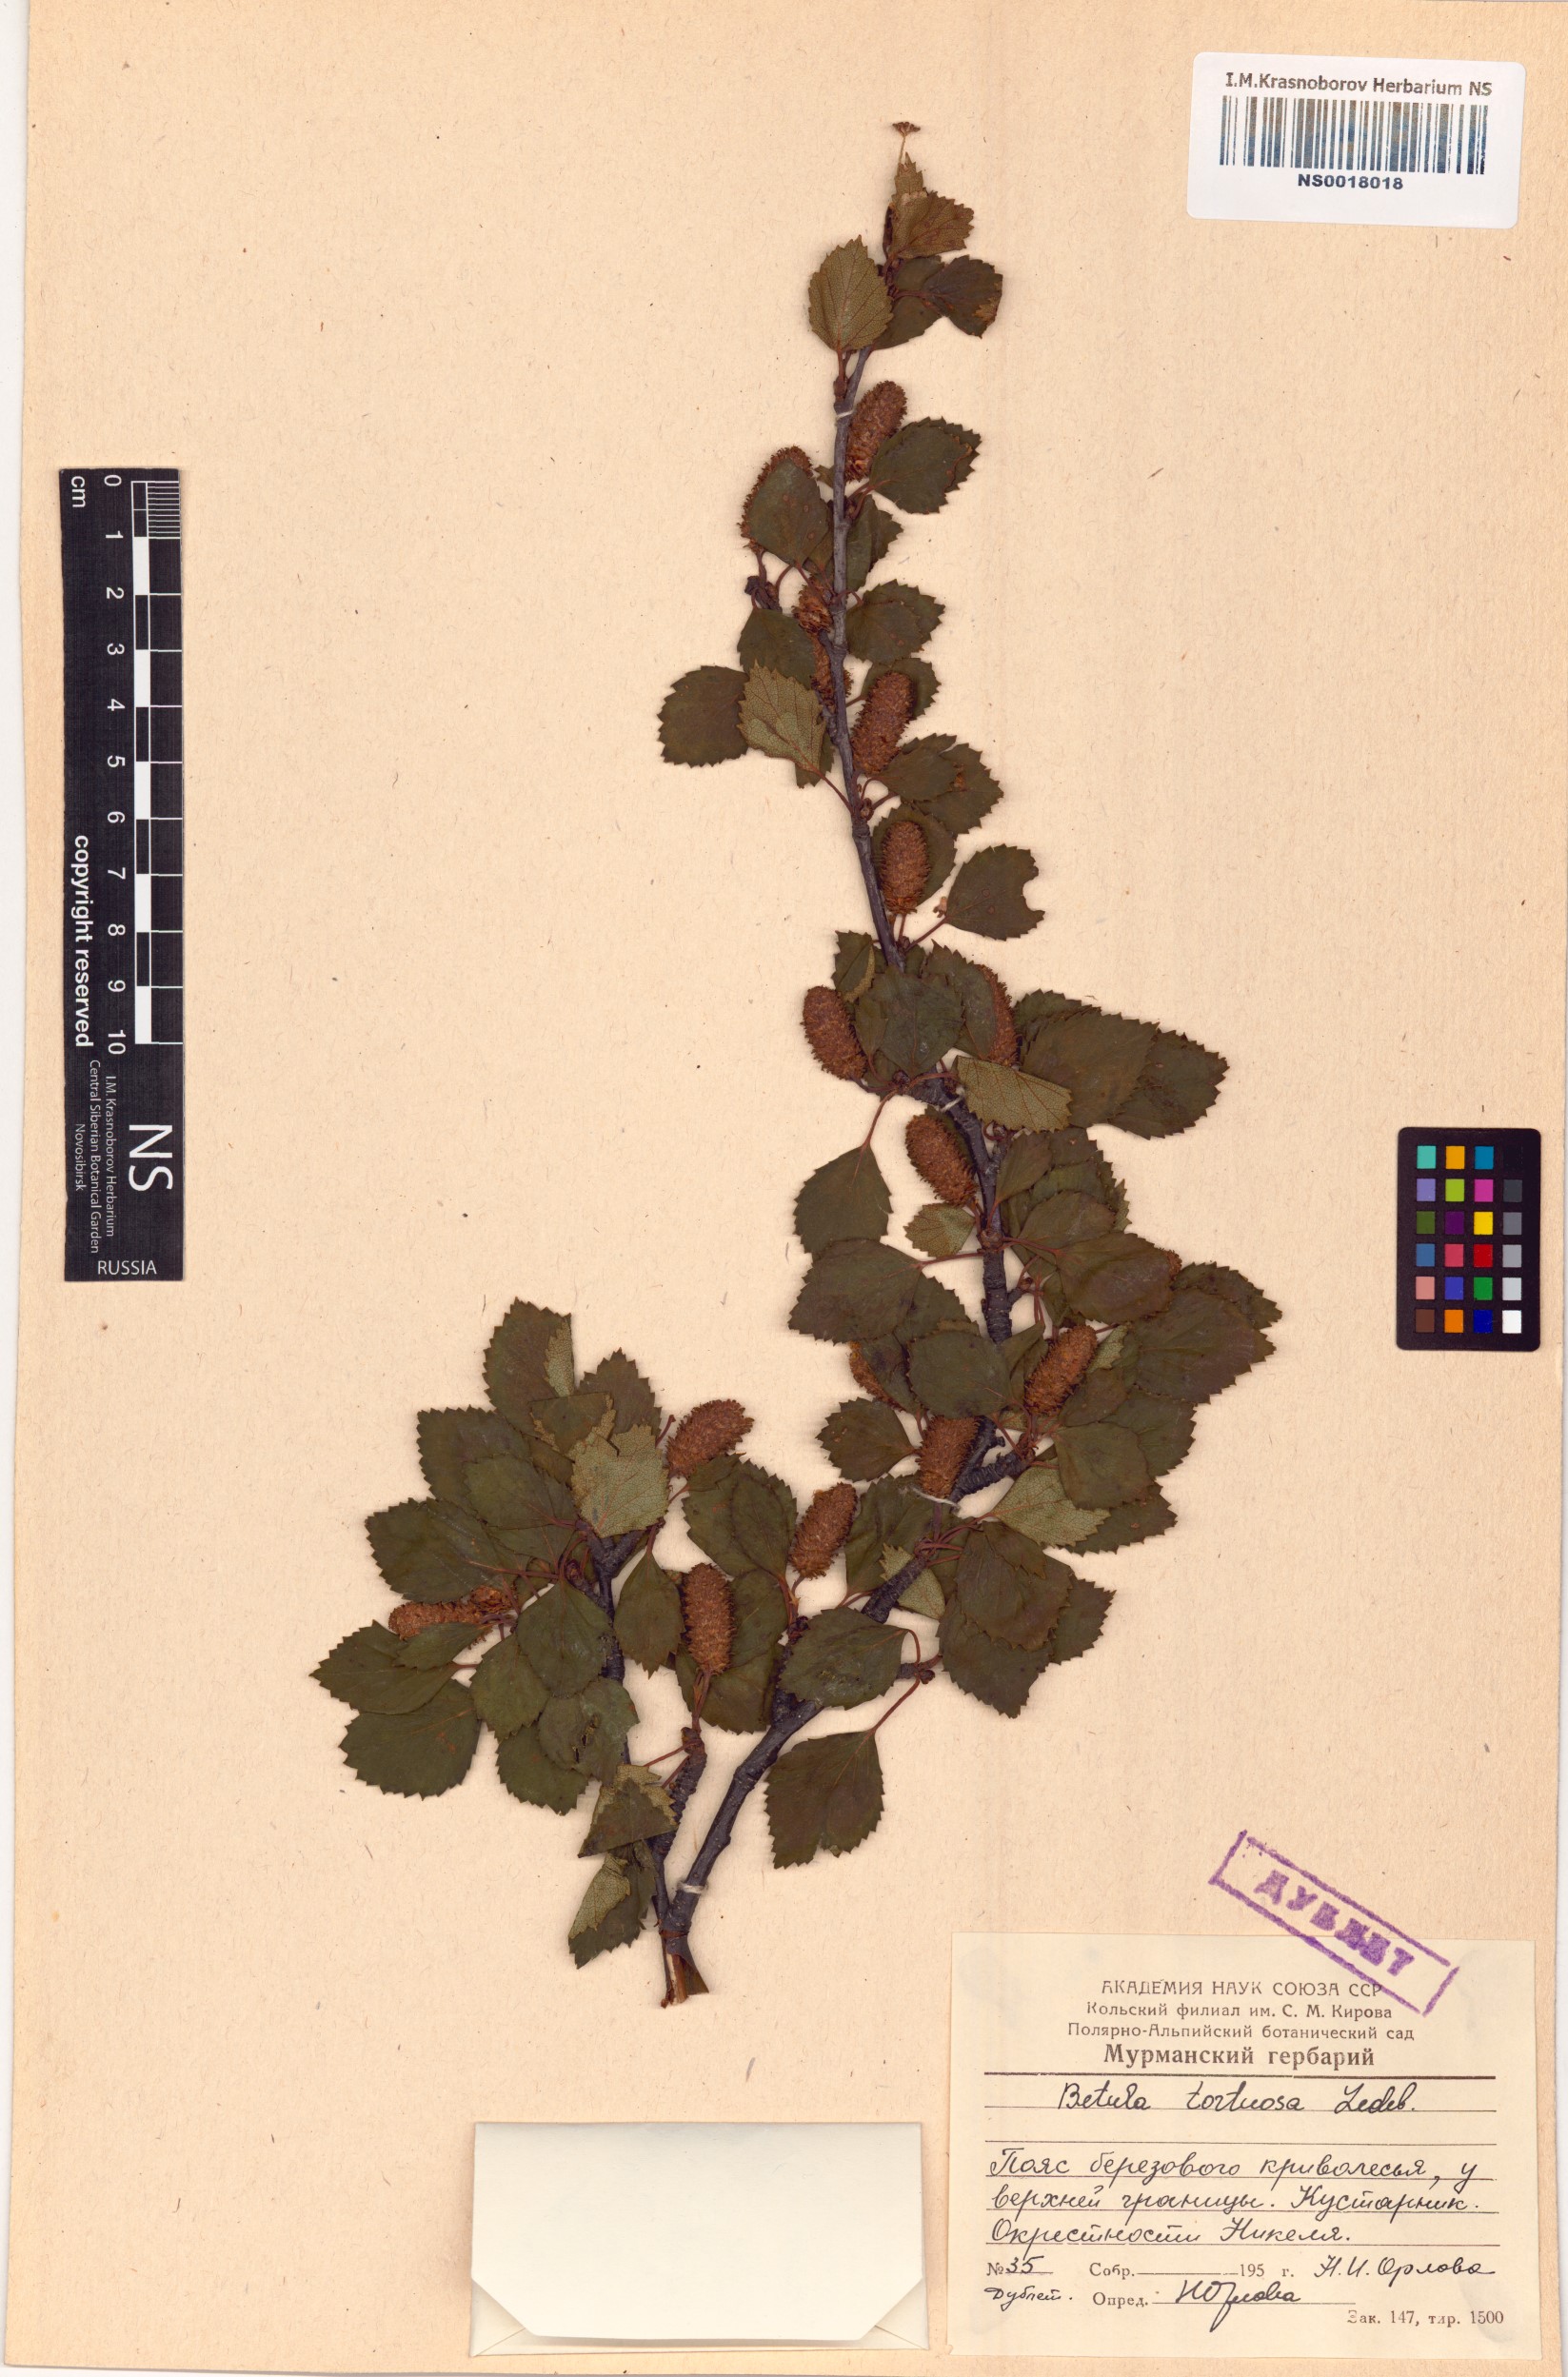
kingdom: Plantae
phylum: Tracheophyta
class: Magnoliopsida
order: Fagales
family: Betulaceae
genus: Betula
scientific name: Betula pubescens
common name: Downy birch
